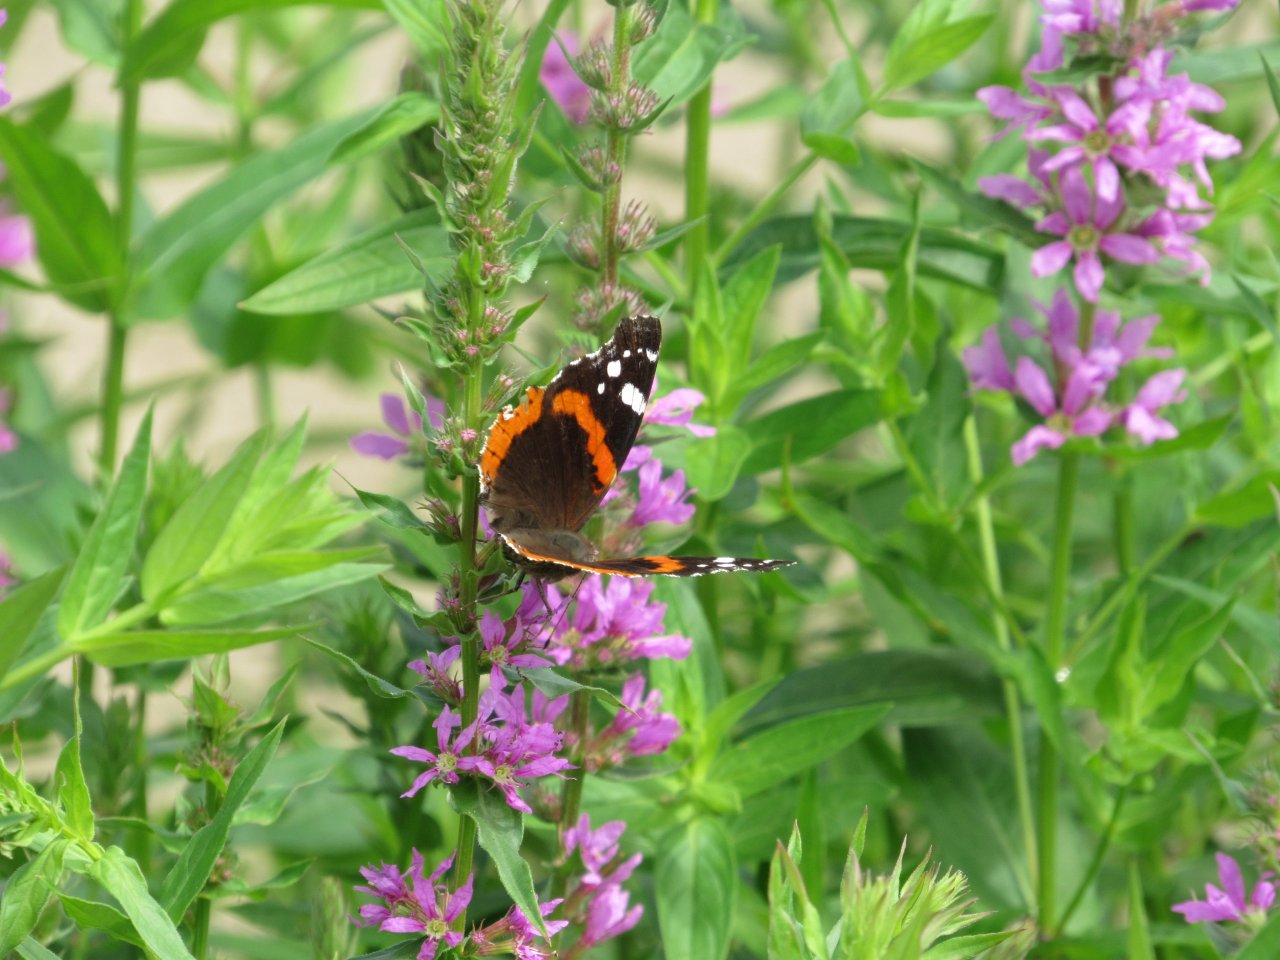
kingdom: Animalia
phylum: Arthropoda
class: Insecta
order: Lepidoptera
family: Nymphalidae
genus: Vanessa
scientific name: Vanessa atalanta
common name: Red Admiral
